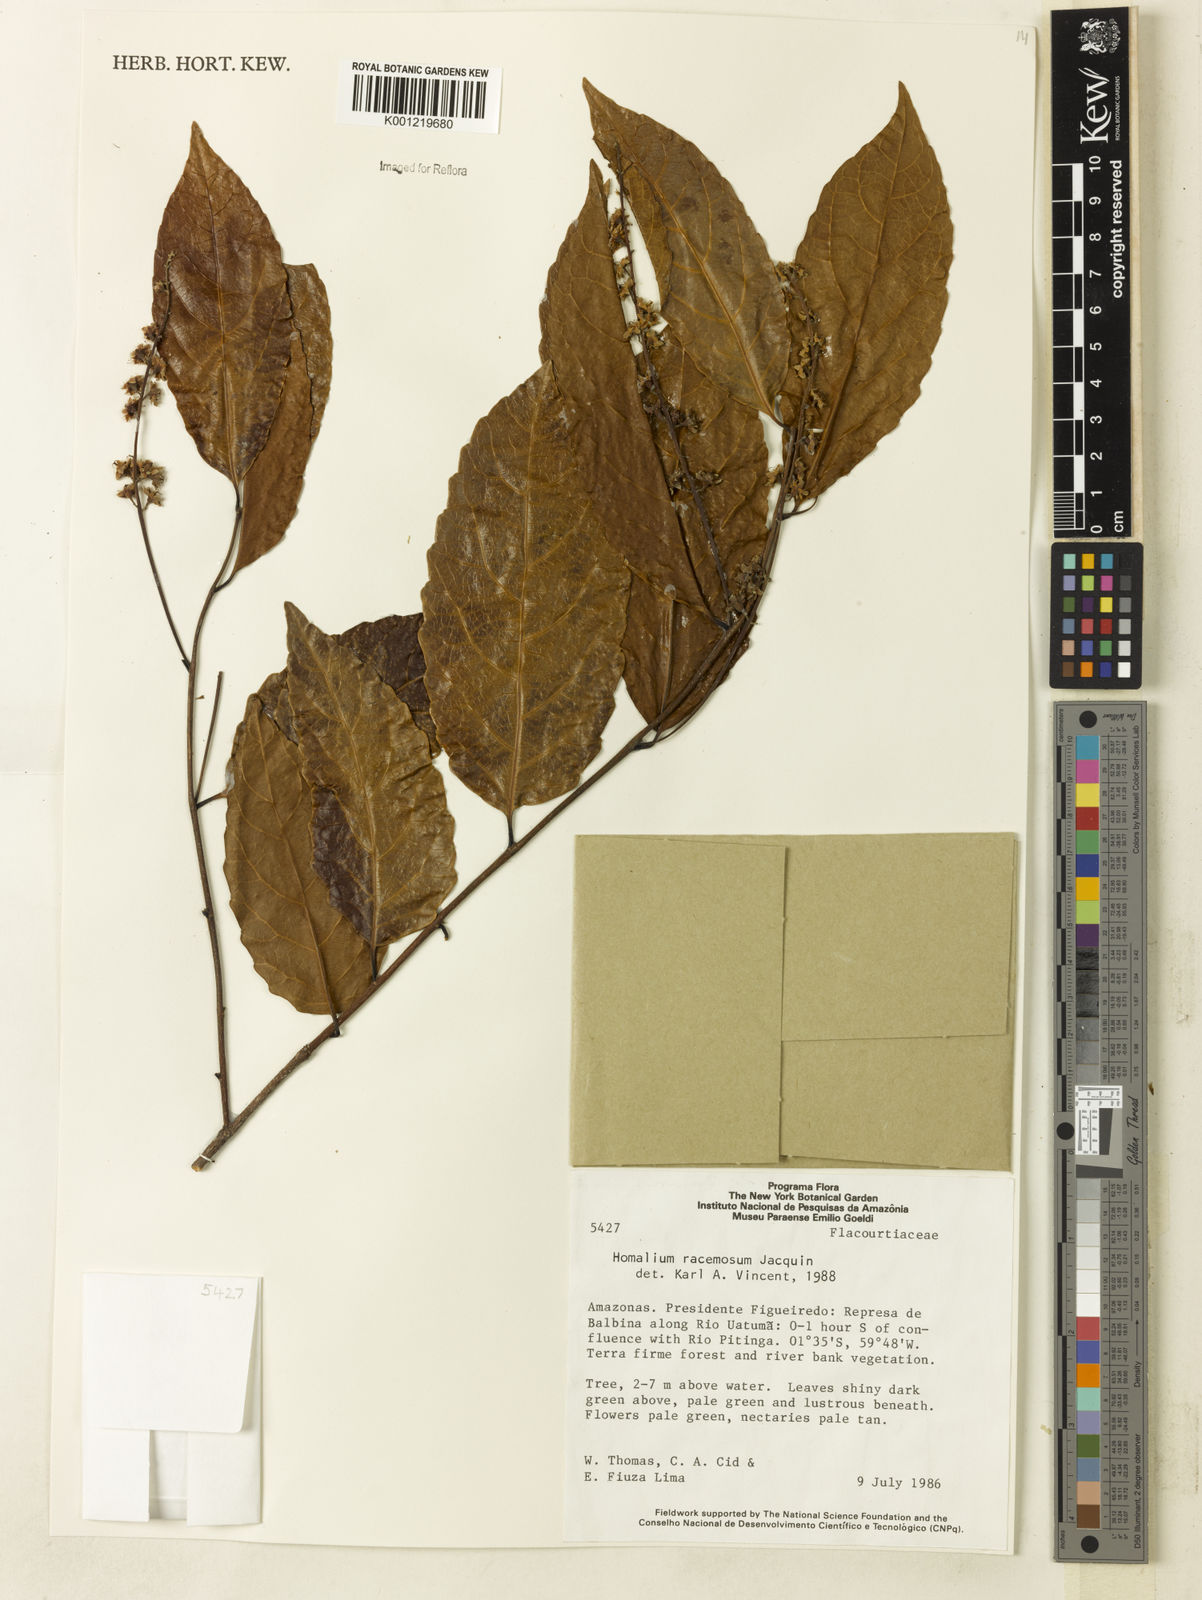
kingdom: Plantae
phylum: Tracheophyta
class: Magnoliopsida
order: Malpighiales
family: Salicaceae
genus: Homalium
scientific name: Homalium racemosum
